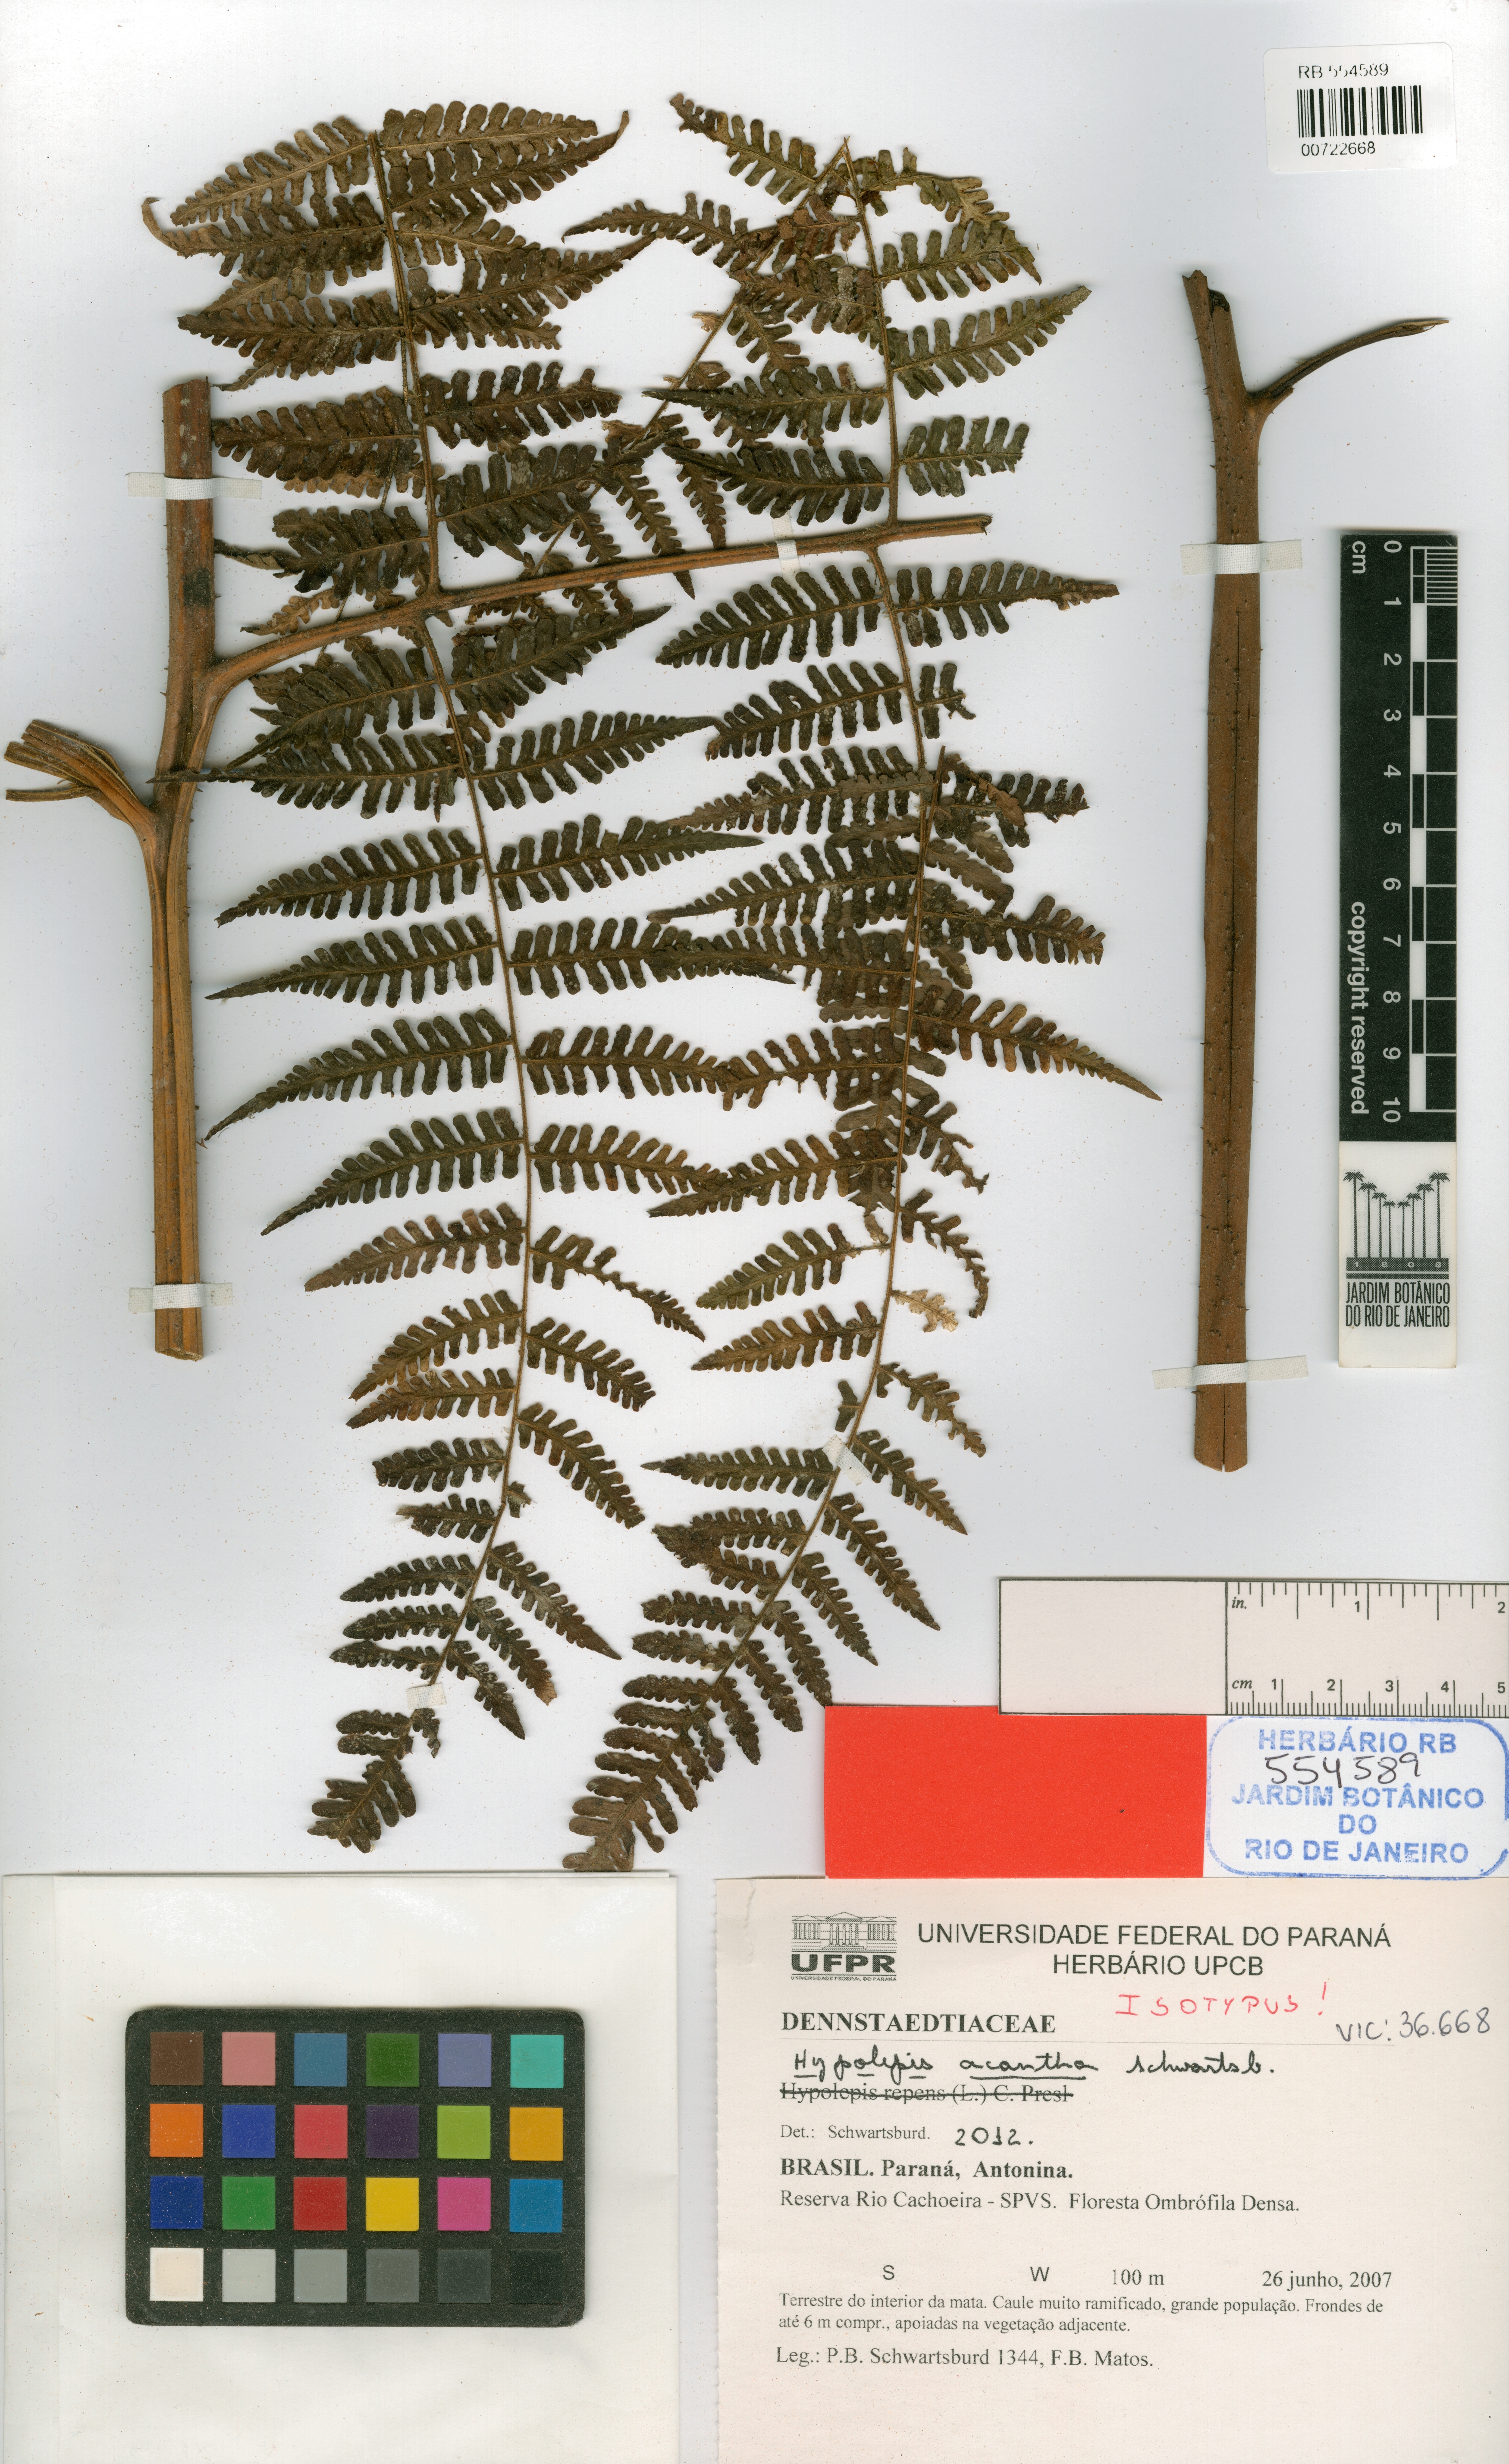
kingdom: Plantae
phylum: Tracheophyta
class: Polypodiopsida
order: Polypodiales
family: Dennstaedtiaceae
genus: Hypolepis
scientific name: Hypolepis acantha
